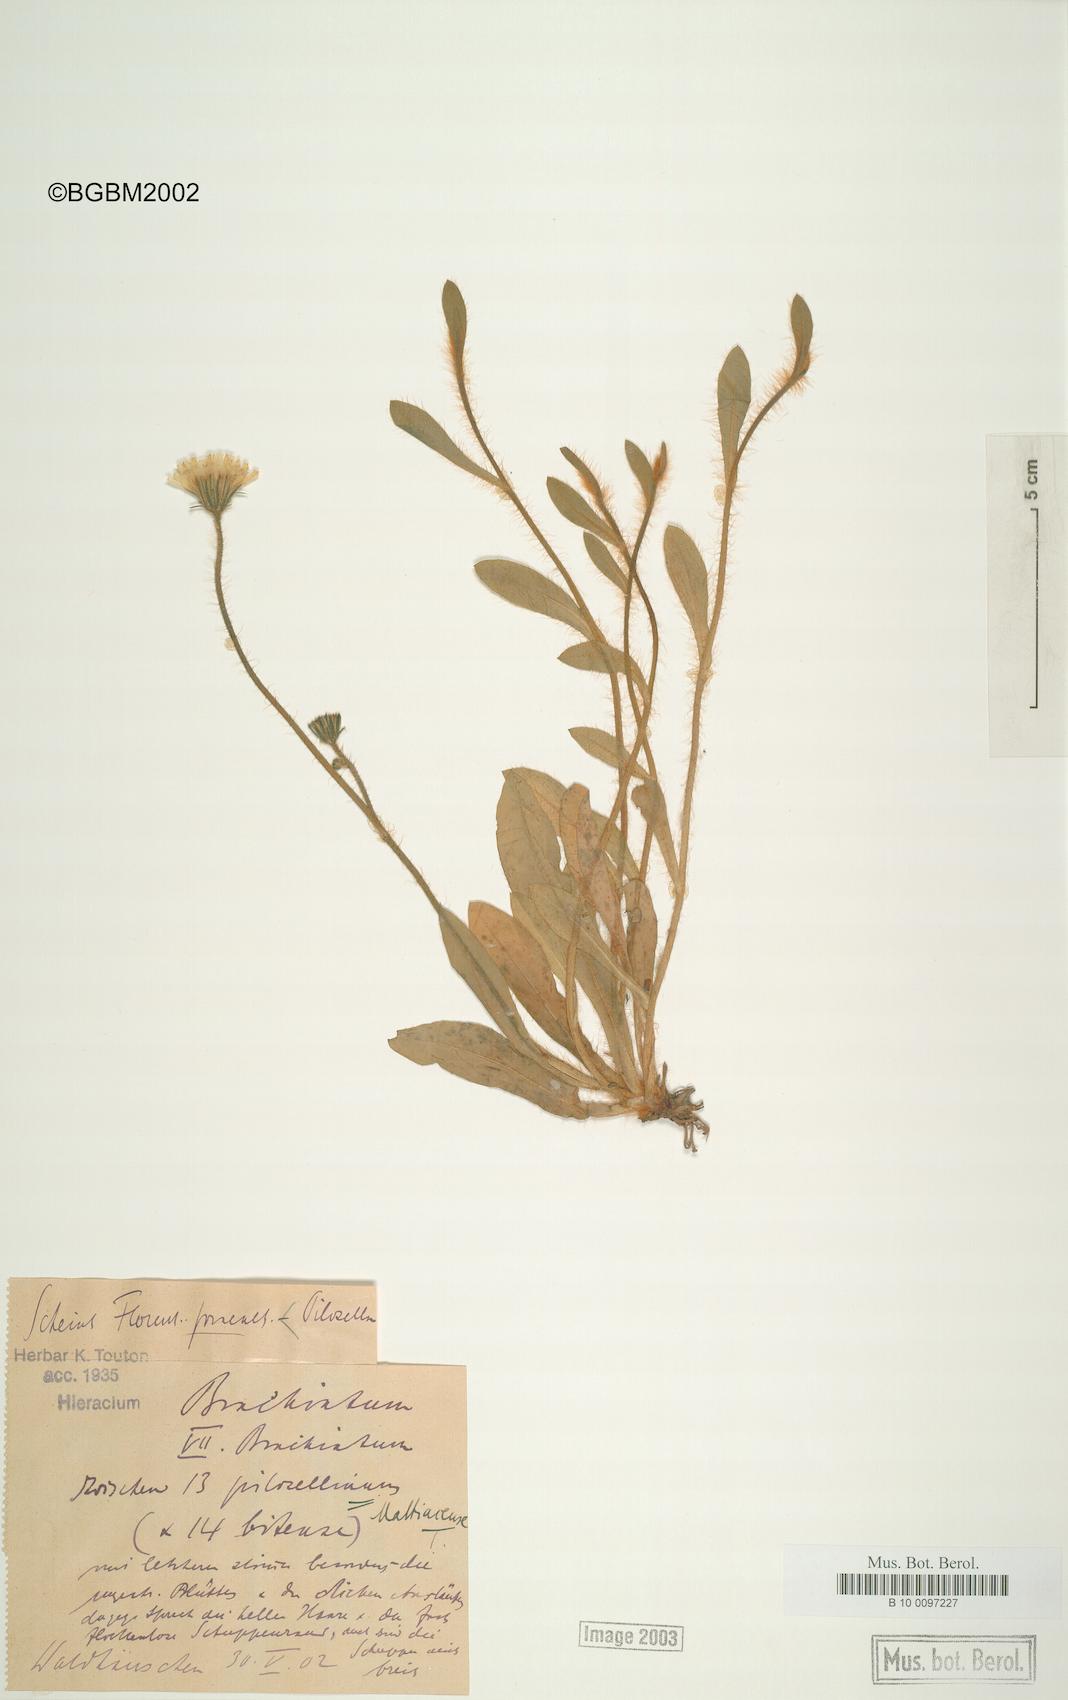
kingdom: Plantae
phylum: Tracheophyta
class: Magnoliopsida
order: Asterales
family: Asteraceae
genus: Pilosella
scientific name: Pilosella acutifolia
